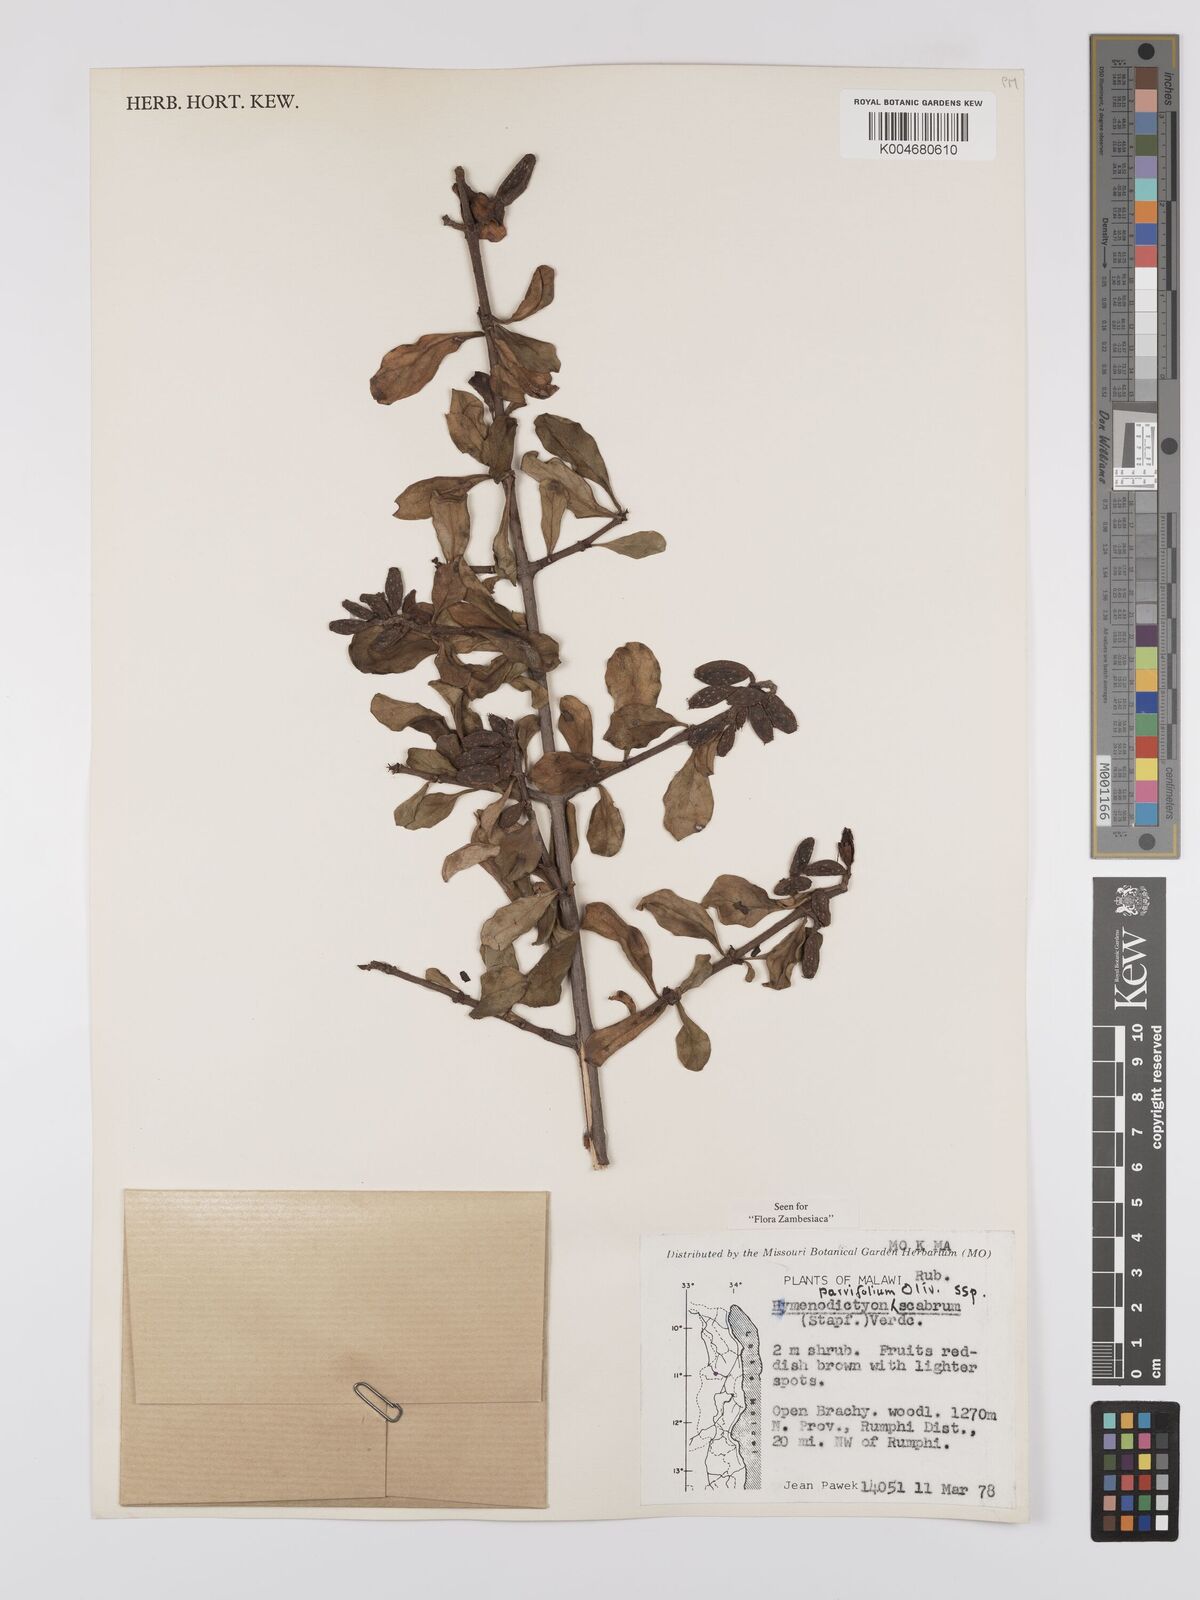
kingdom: Plantae
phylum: Tracheophyta
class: Magnoliopsida
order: Gentianales
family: Rubiaceae
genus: Hymenodictyon
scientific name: Hymenodictyon parvifolium
